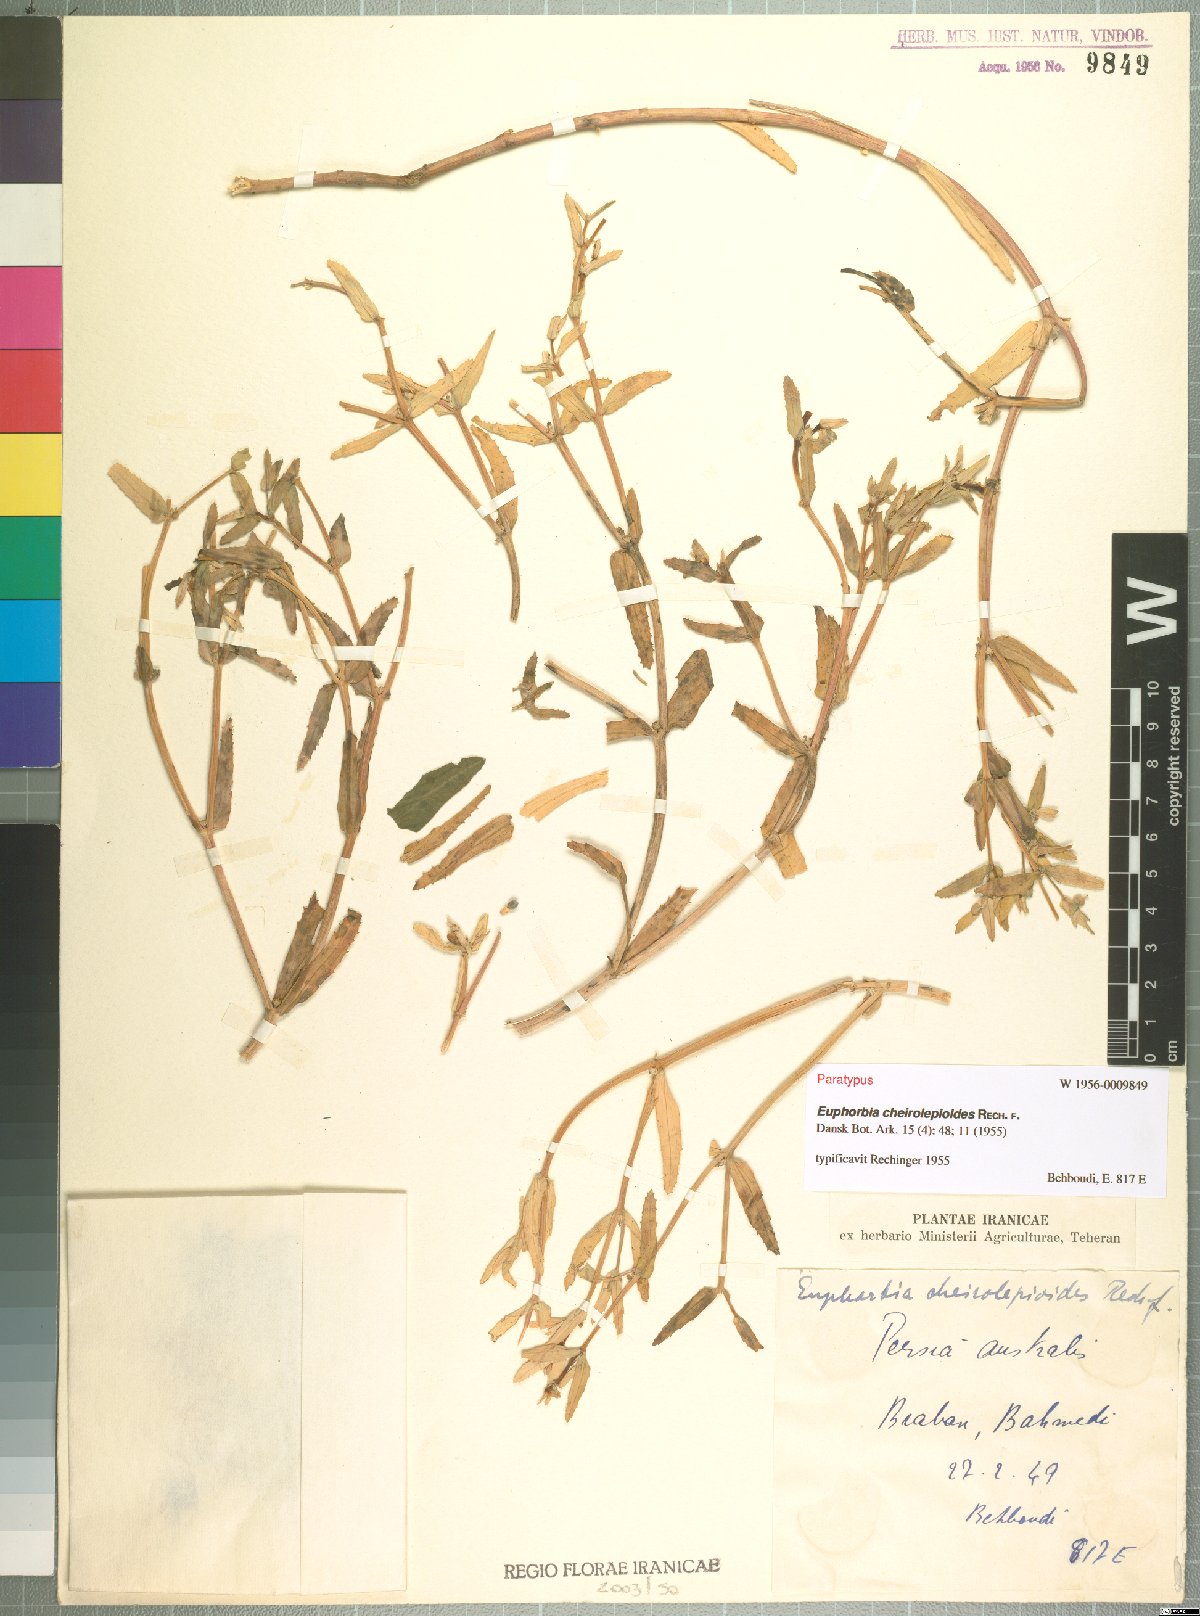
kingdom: Plantae
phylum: Tracheophyta
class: Magnoliopsida
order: Malpighiales
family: Euphorbiaceae
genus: Euphorbia
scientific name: Euphorbia grossheimii
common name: Grossheim's spurge
